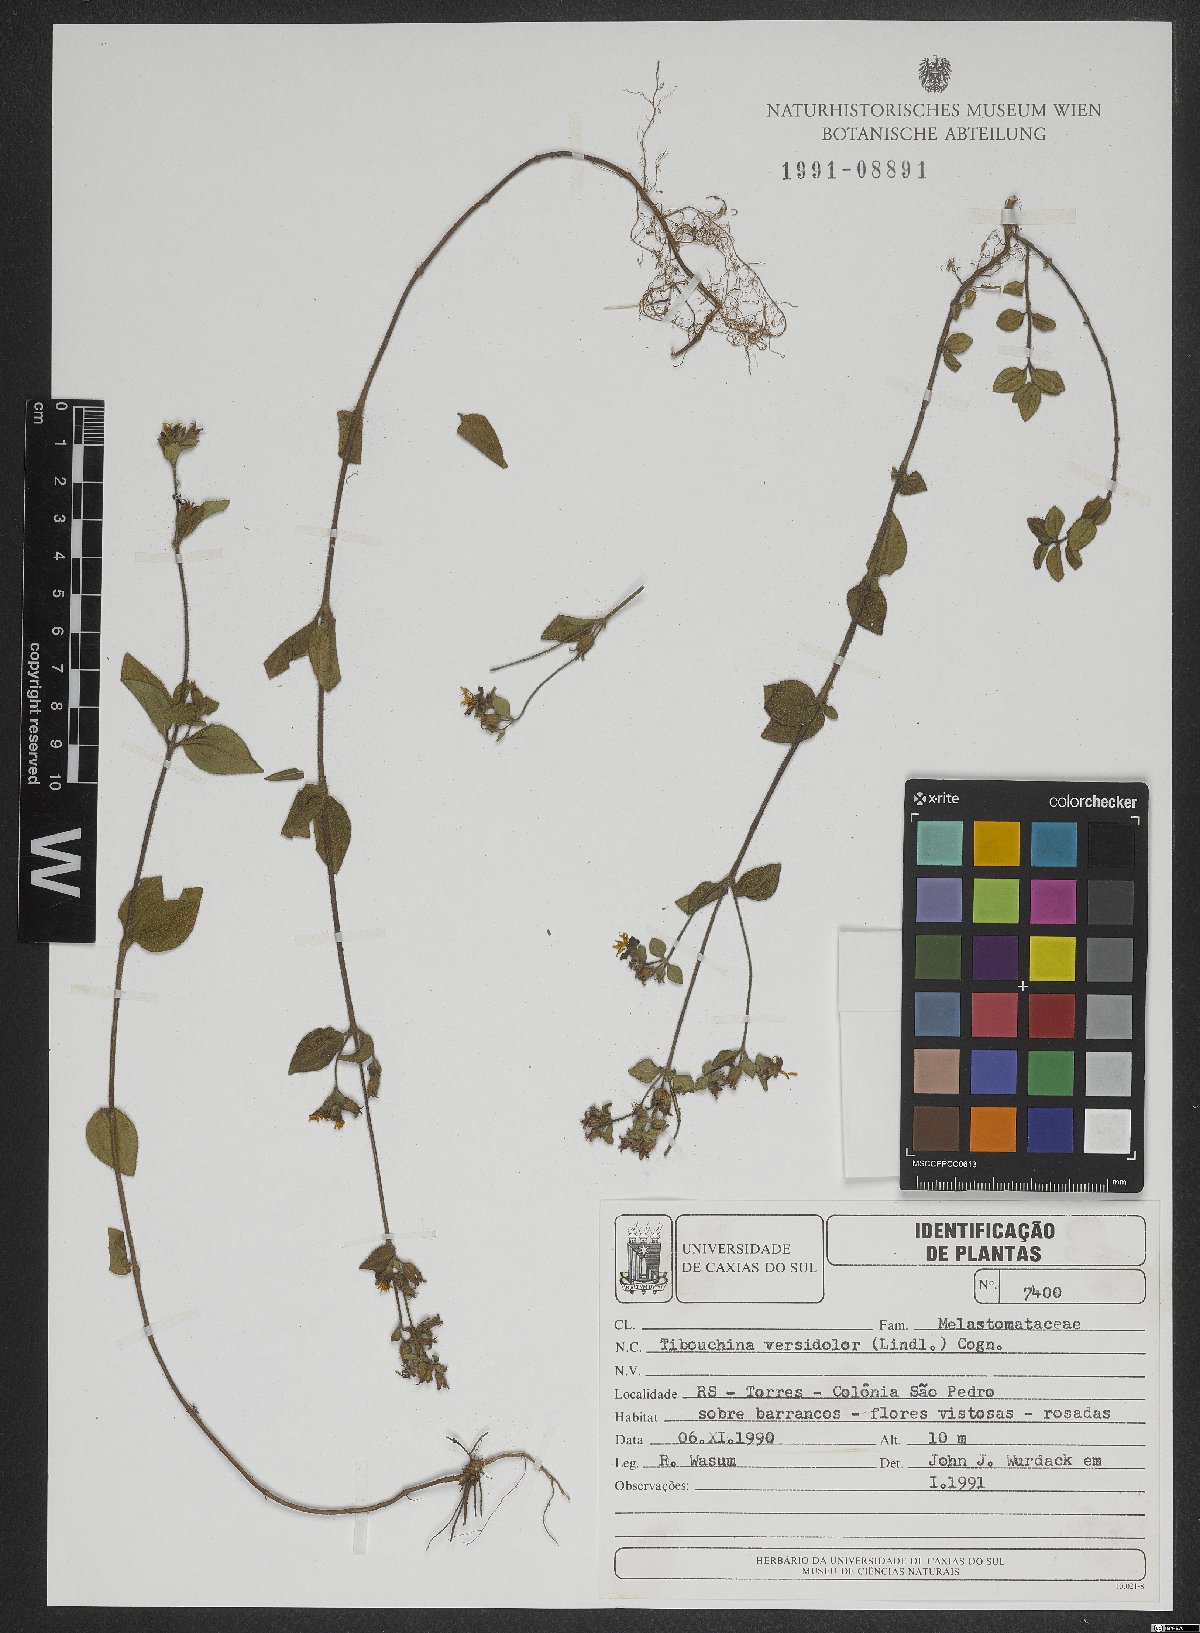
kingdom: Plantae
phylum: Tracheophyta
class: Magnoliopsida
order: Myrtales
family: Melastomataceae
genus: Chaetogastra
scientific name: Chaetogastra versicolor
